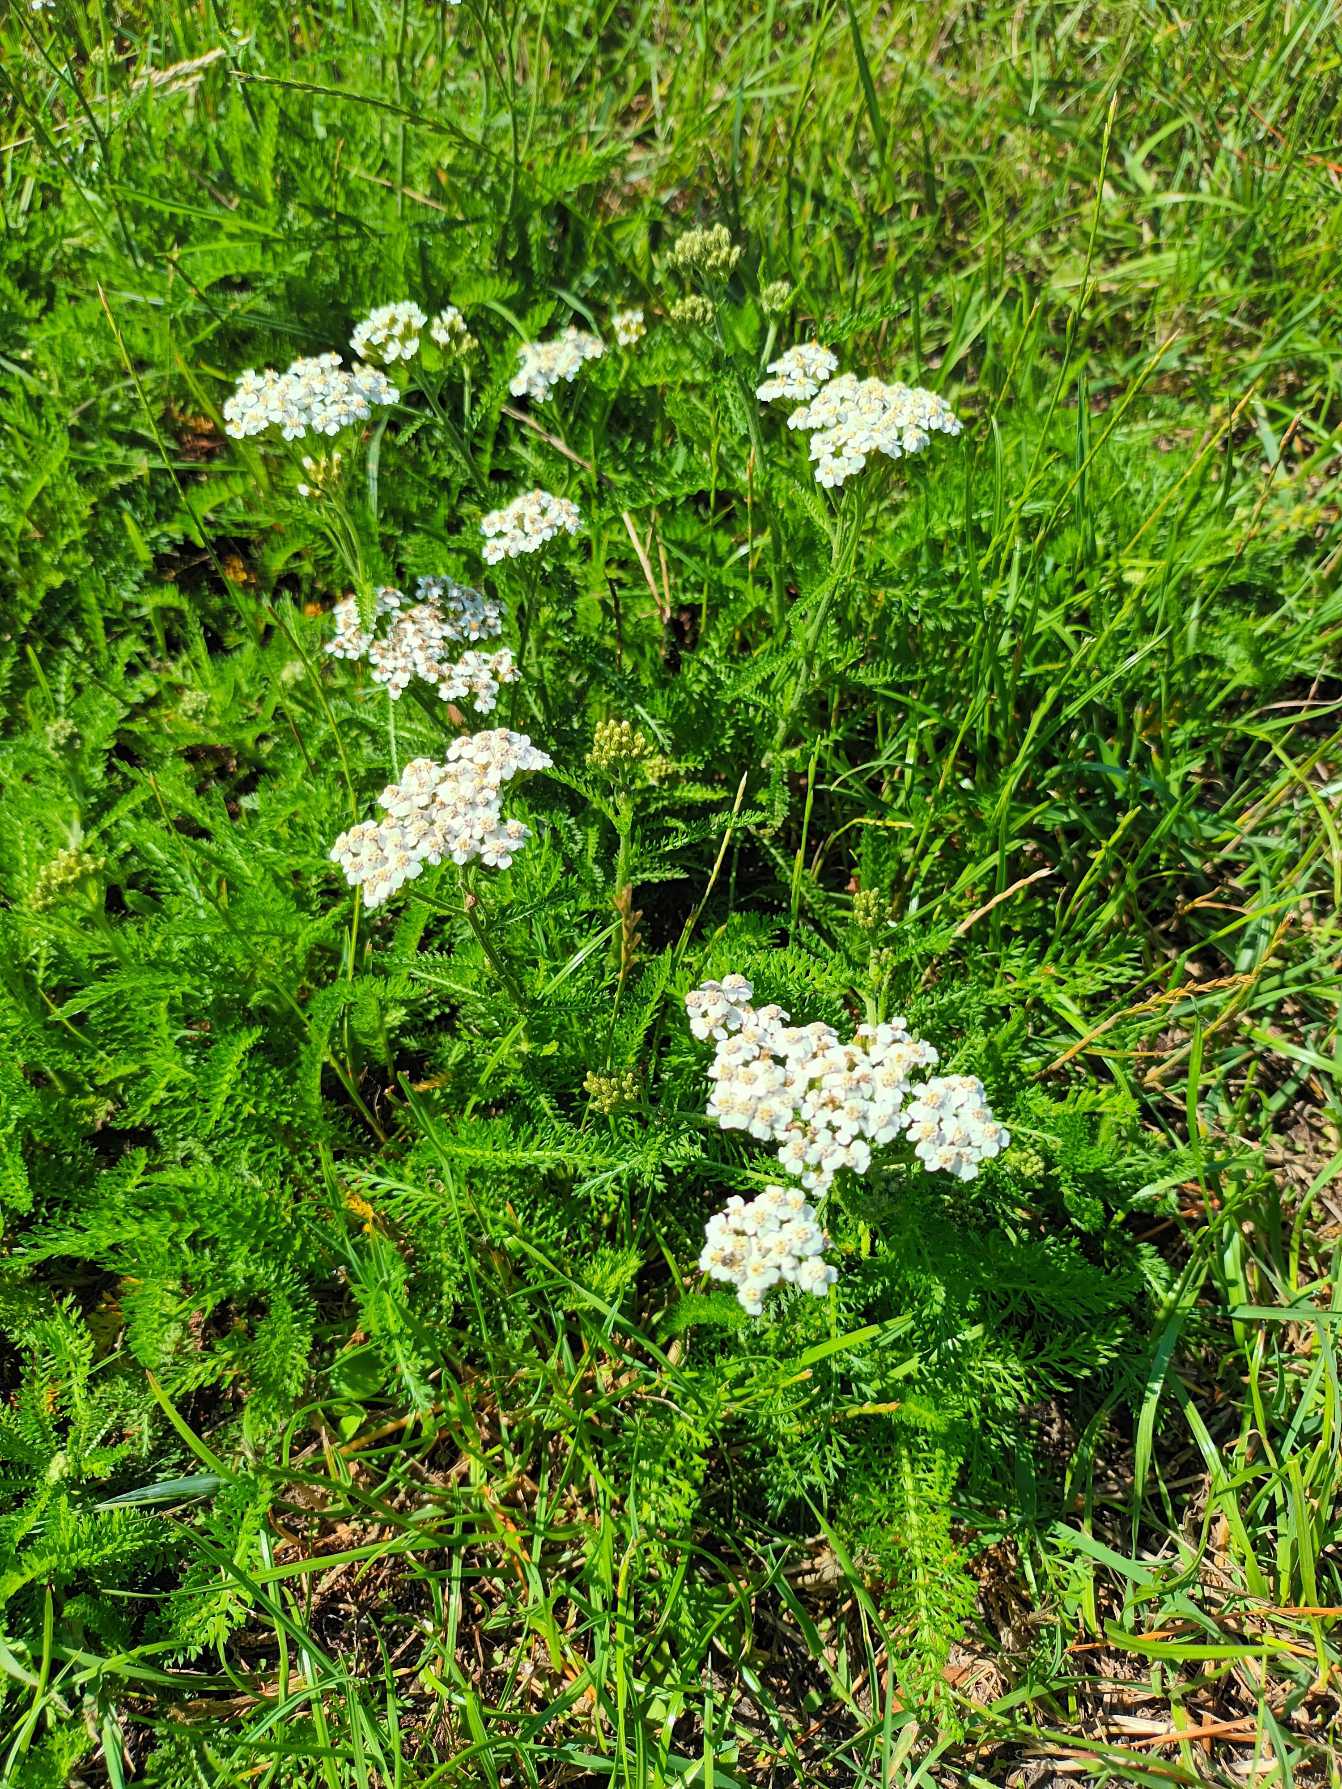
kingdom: Plantae
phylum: Tracheophyta
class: Magnoliopsida
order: Asterales
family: Asteraceae
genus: Achillea
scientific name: Achillea millefolium
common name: Almindelig røllike
